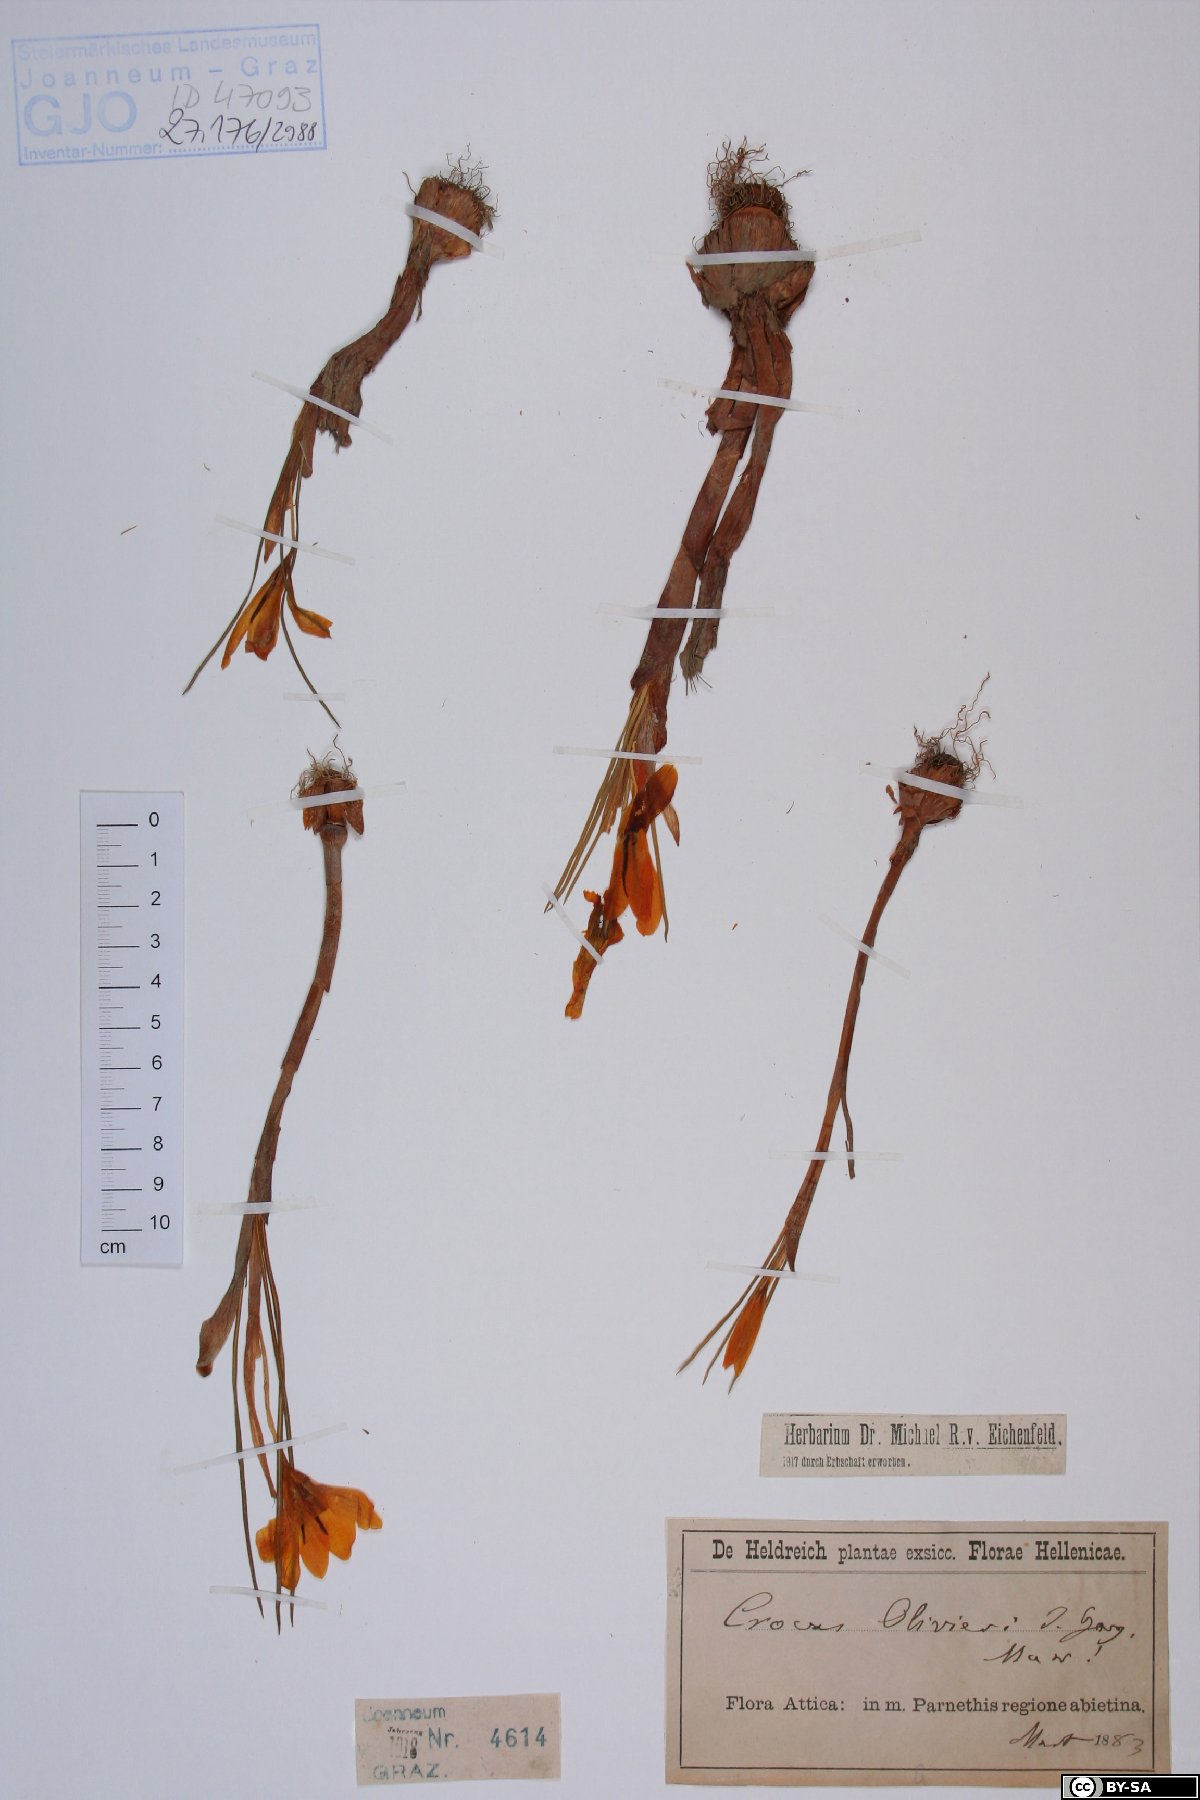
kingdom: Plantae
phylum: Tracheophyta
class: Liliopsida
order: Asparagales
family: Iridaceae
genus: Crocus
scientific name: Crocus olivieri
